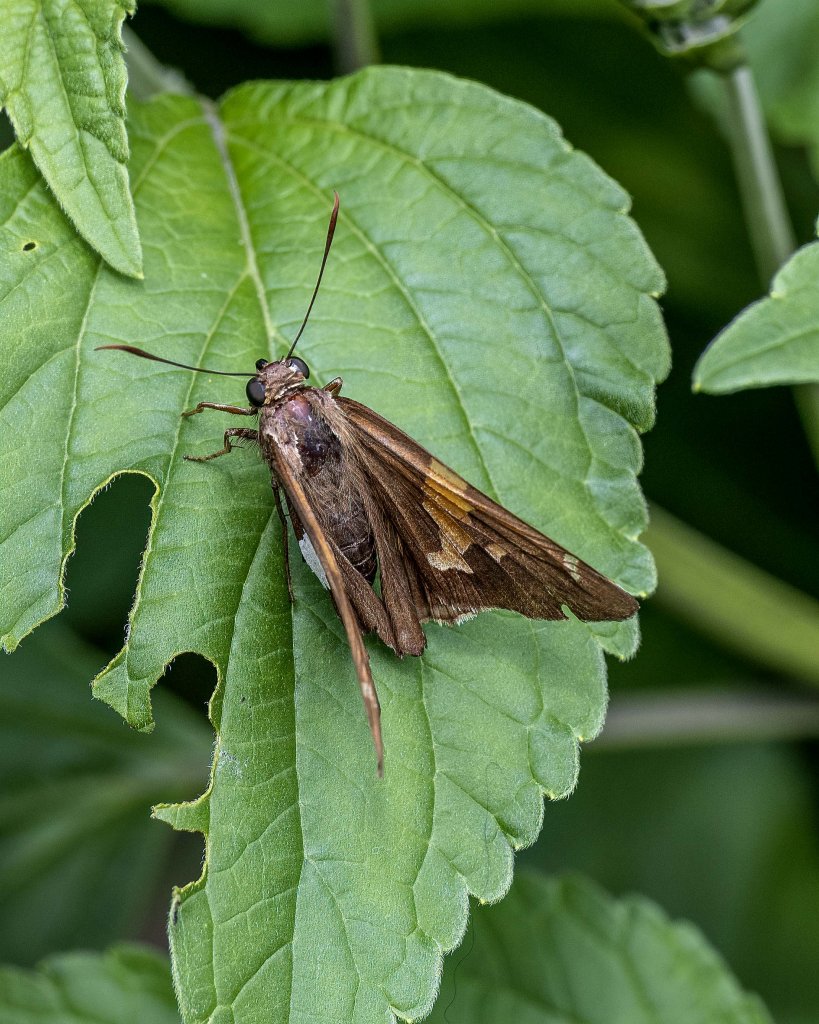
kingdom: Animalia
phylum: Arthropoda
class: Insecta
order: Lepidoptera
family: Hesperiidae
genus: Epargyreus
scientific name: Epargyreus clarus
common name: Silver-spotted Skipper
